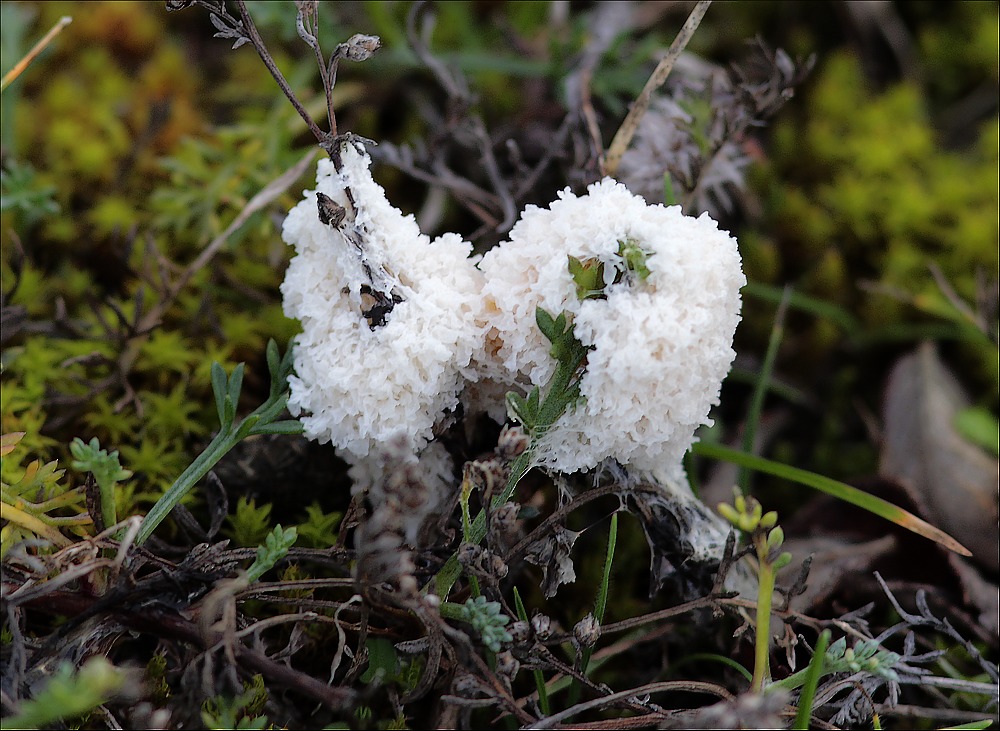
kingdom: Protozoa
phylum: Mycetozoa
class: Myxomycetes
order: Physarales
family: Physaraceae
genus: Didymium
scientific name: Didymium
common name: urteskum
